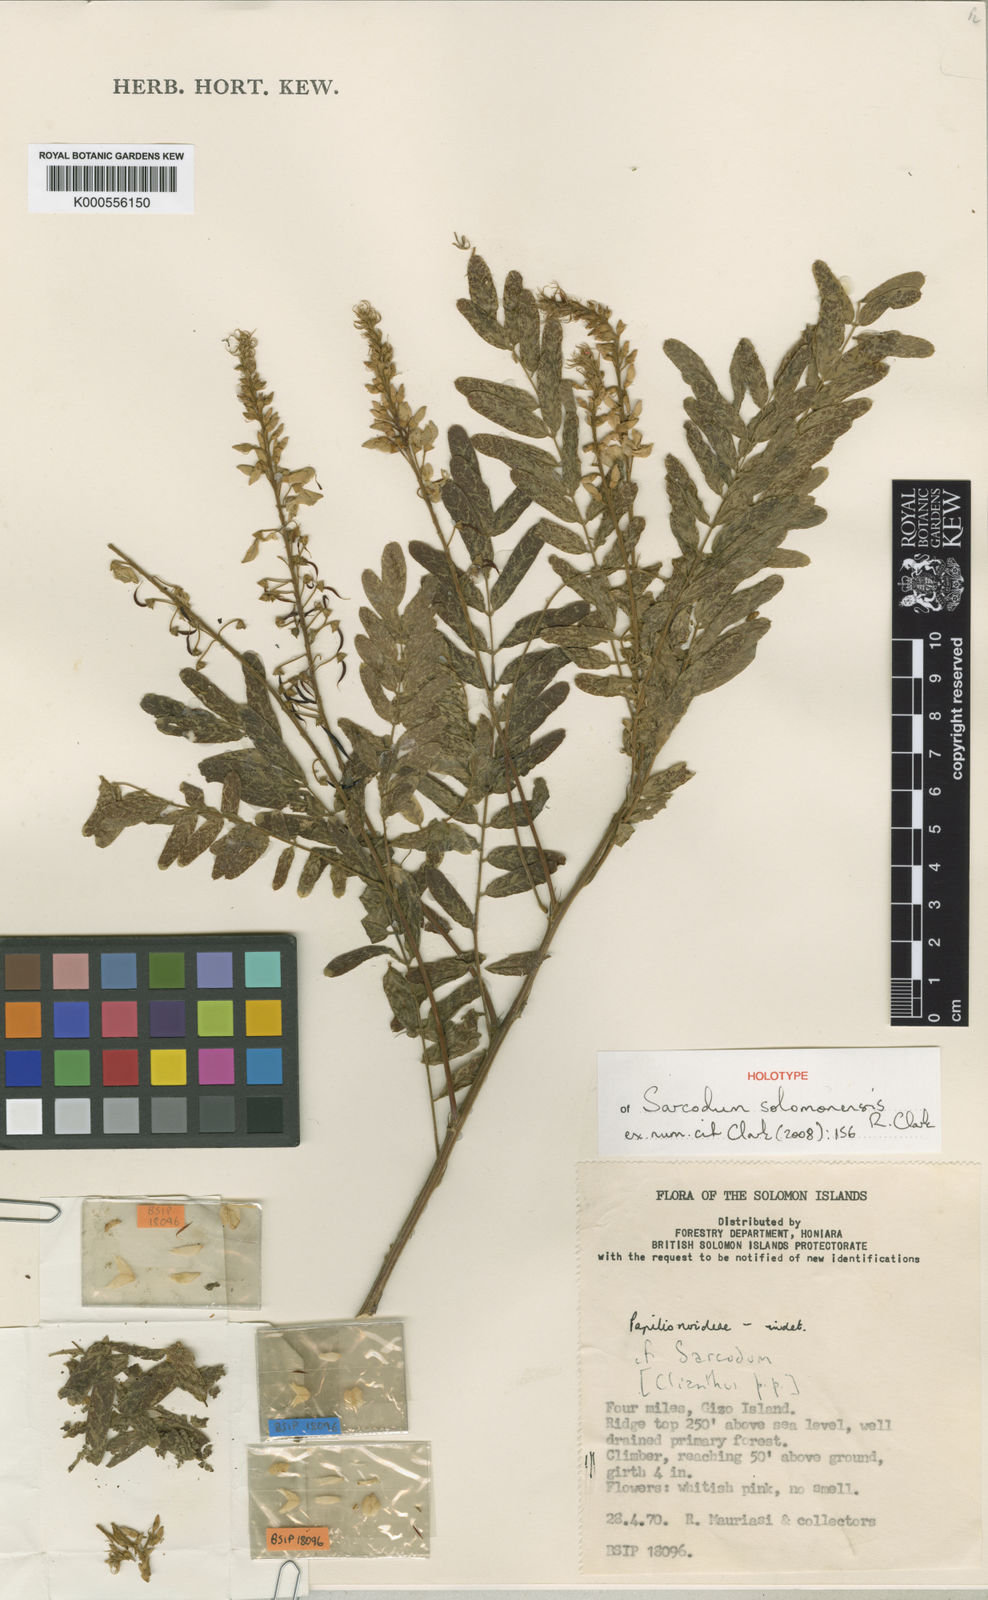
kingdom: Plantae
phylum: Tracheophyta
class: Magnoliopsida
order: Fabales
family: Fabaceae
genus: Sarcodum
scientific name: Sarcodum
